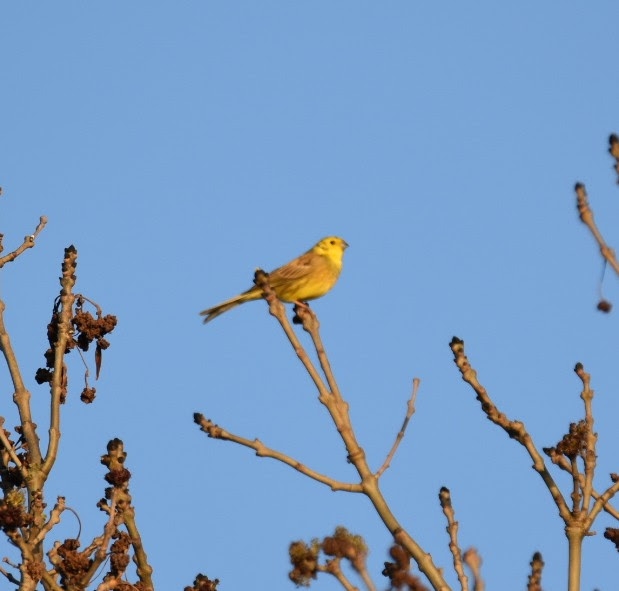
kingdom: Animalia
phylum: Chordata
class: Aves
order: Passeriformes
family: Emberizidae
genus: Emberiza
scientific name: Emberiza citrinella
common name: Gulspurv
